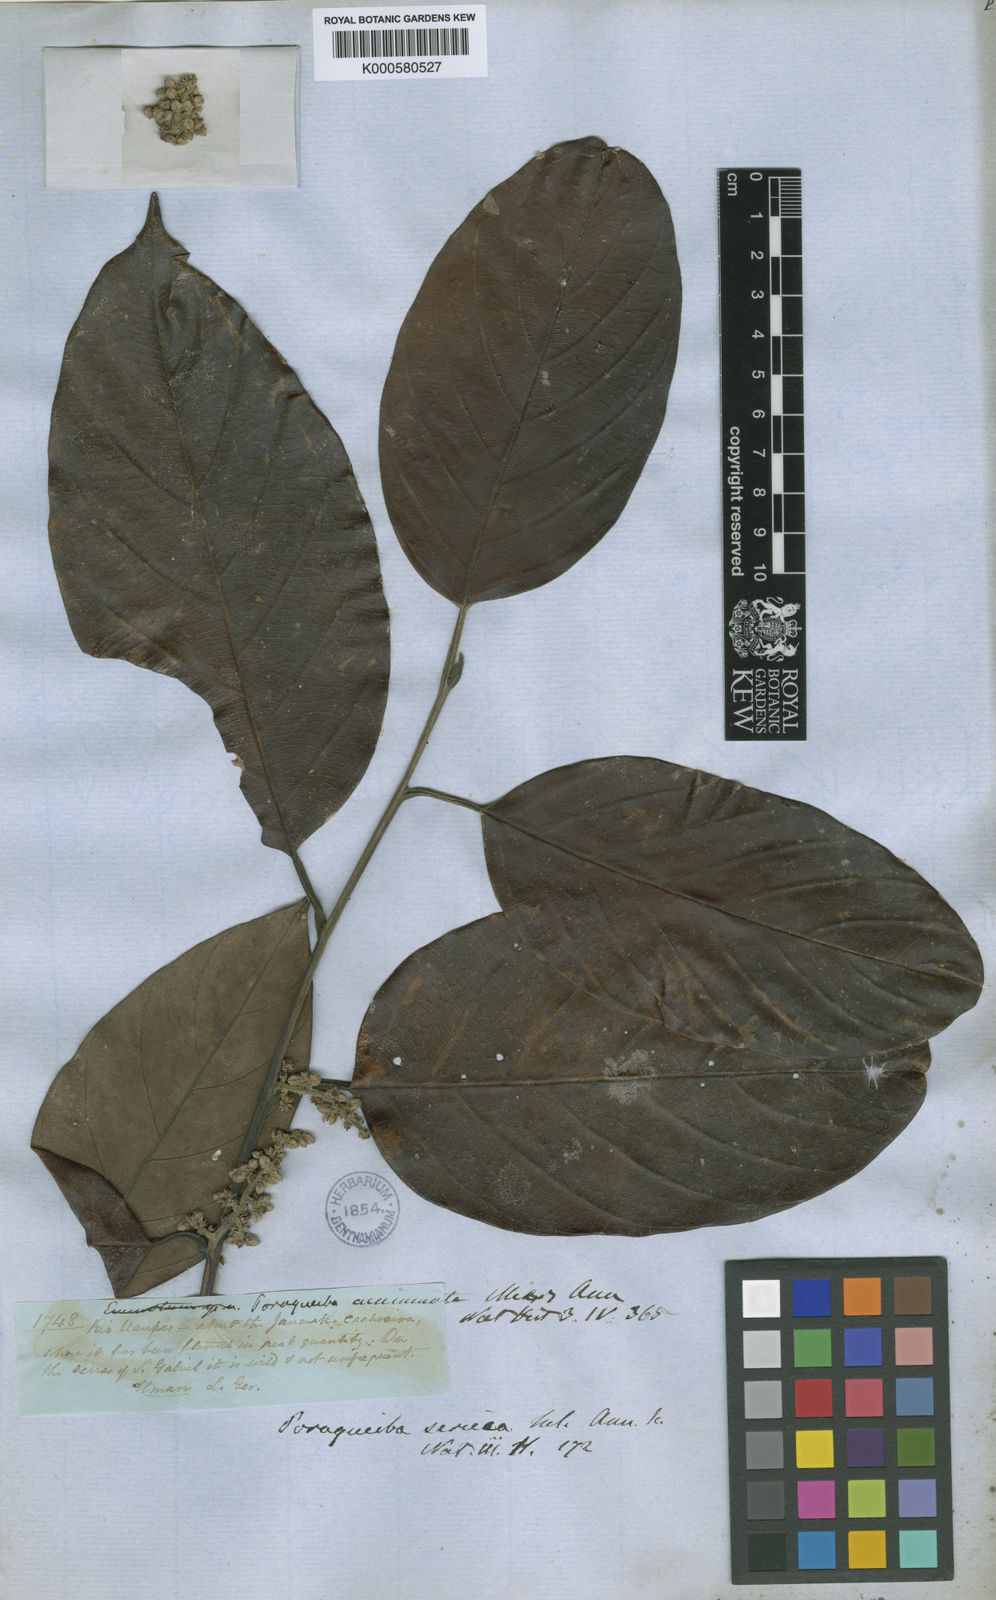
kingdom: Plantae
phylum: Tracheophyta
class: Magnoliopsida
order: Metteniusales
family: Metteniusaceae
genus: Poraqueiba
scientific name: Poraqueiba sericea
